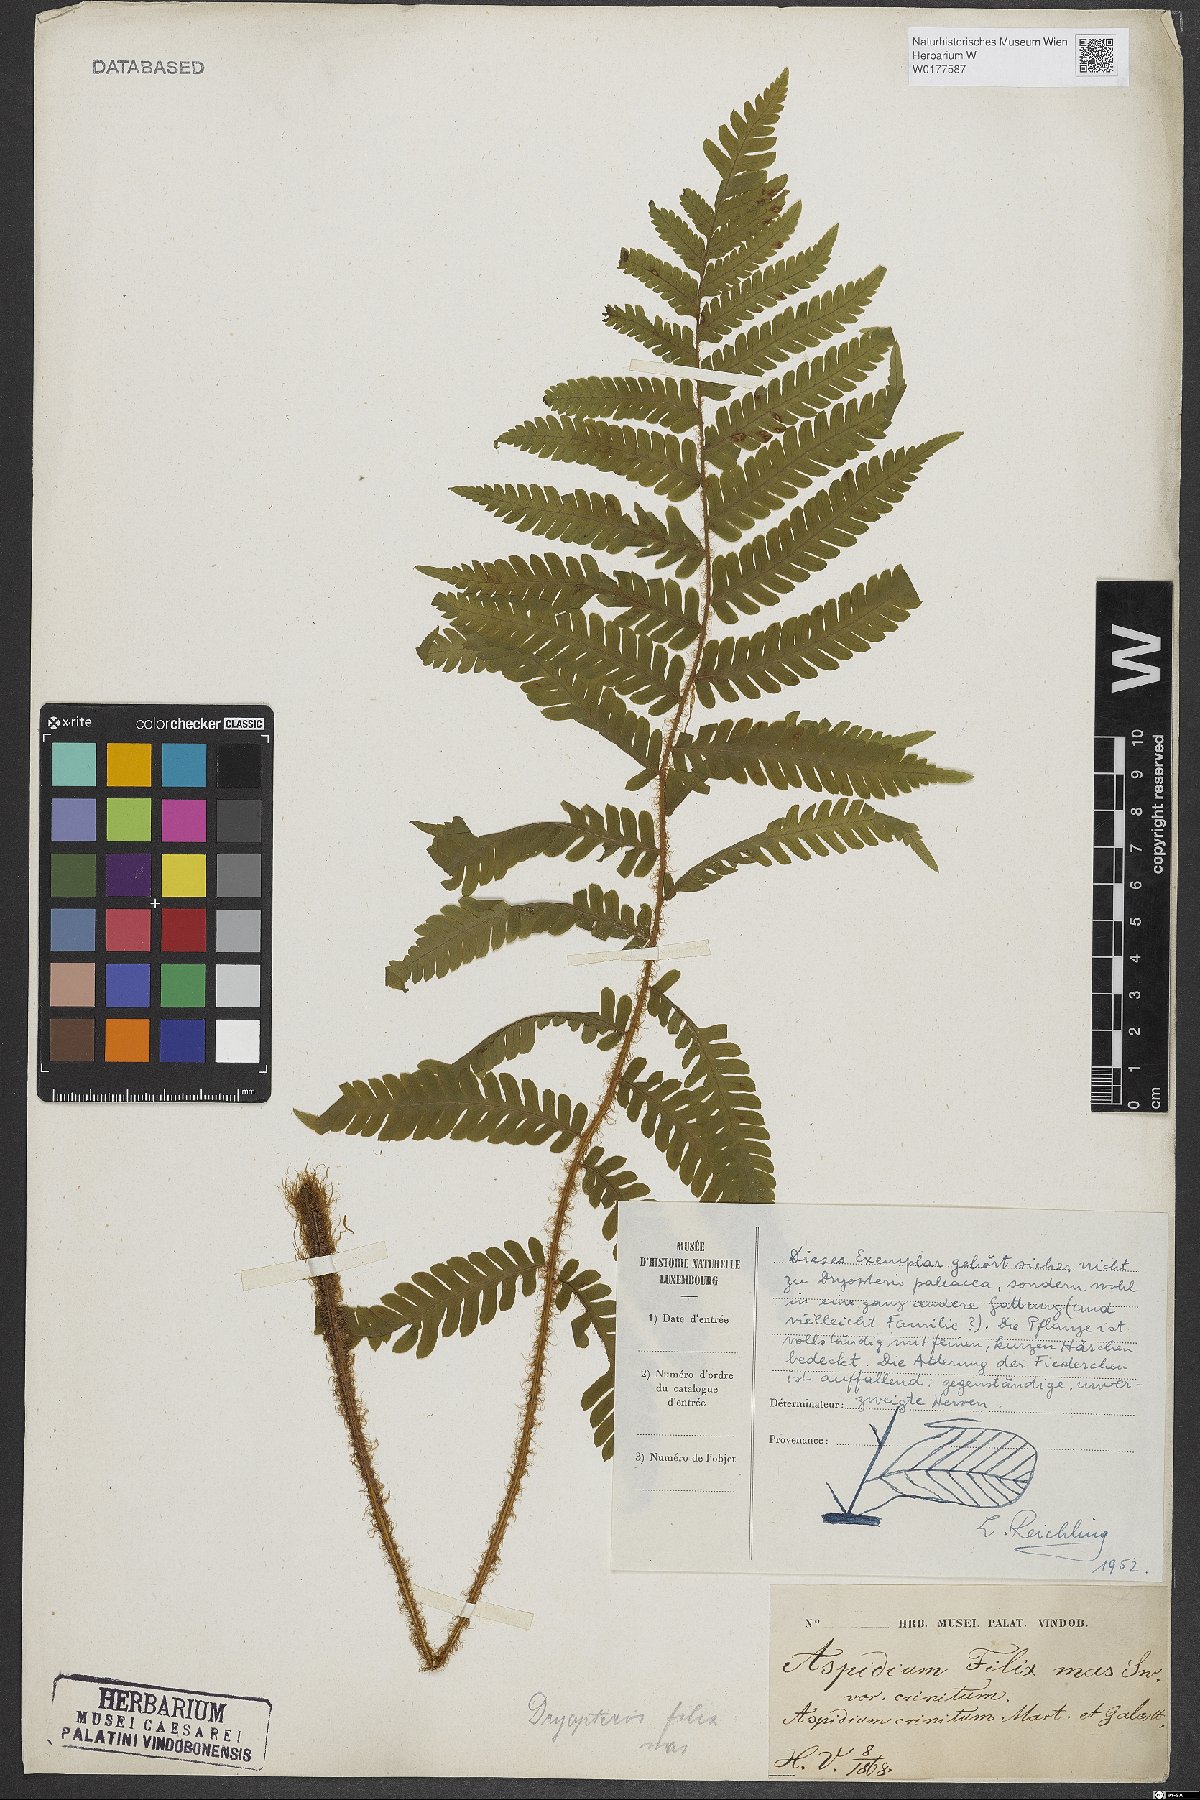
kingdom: Plantae
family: Pteridophyta
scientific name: Pteridophyta
